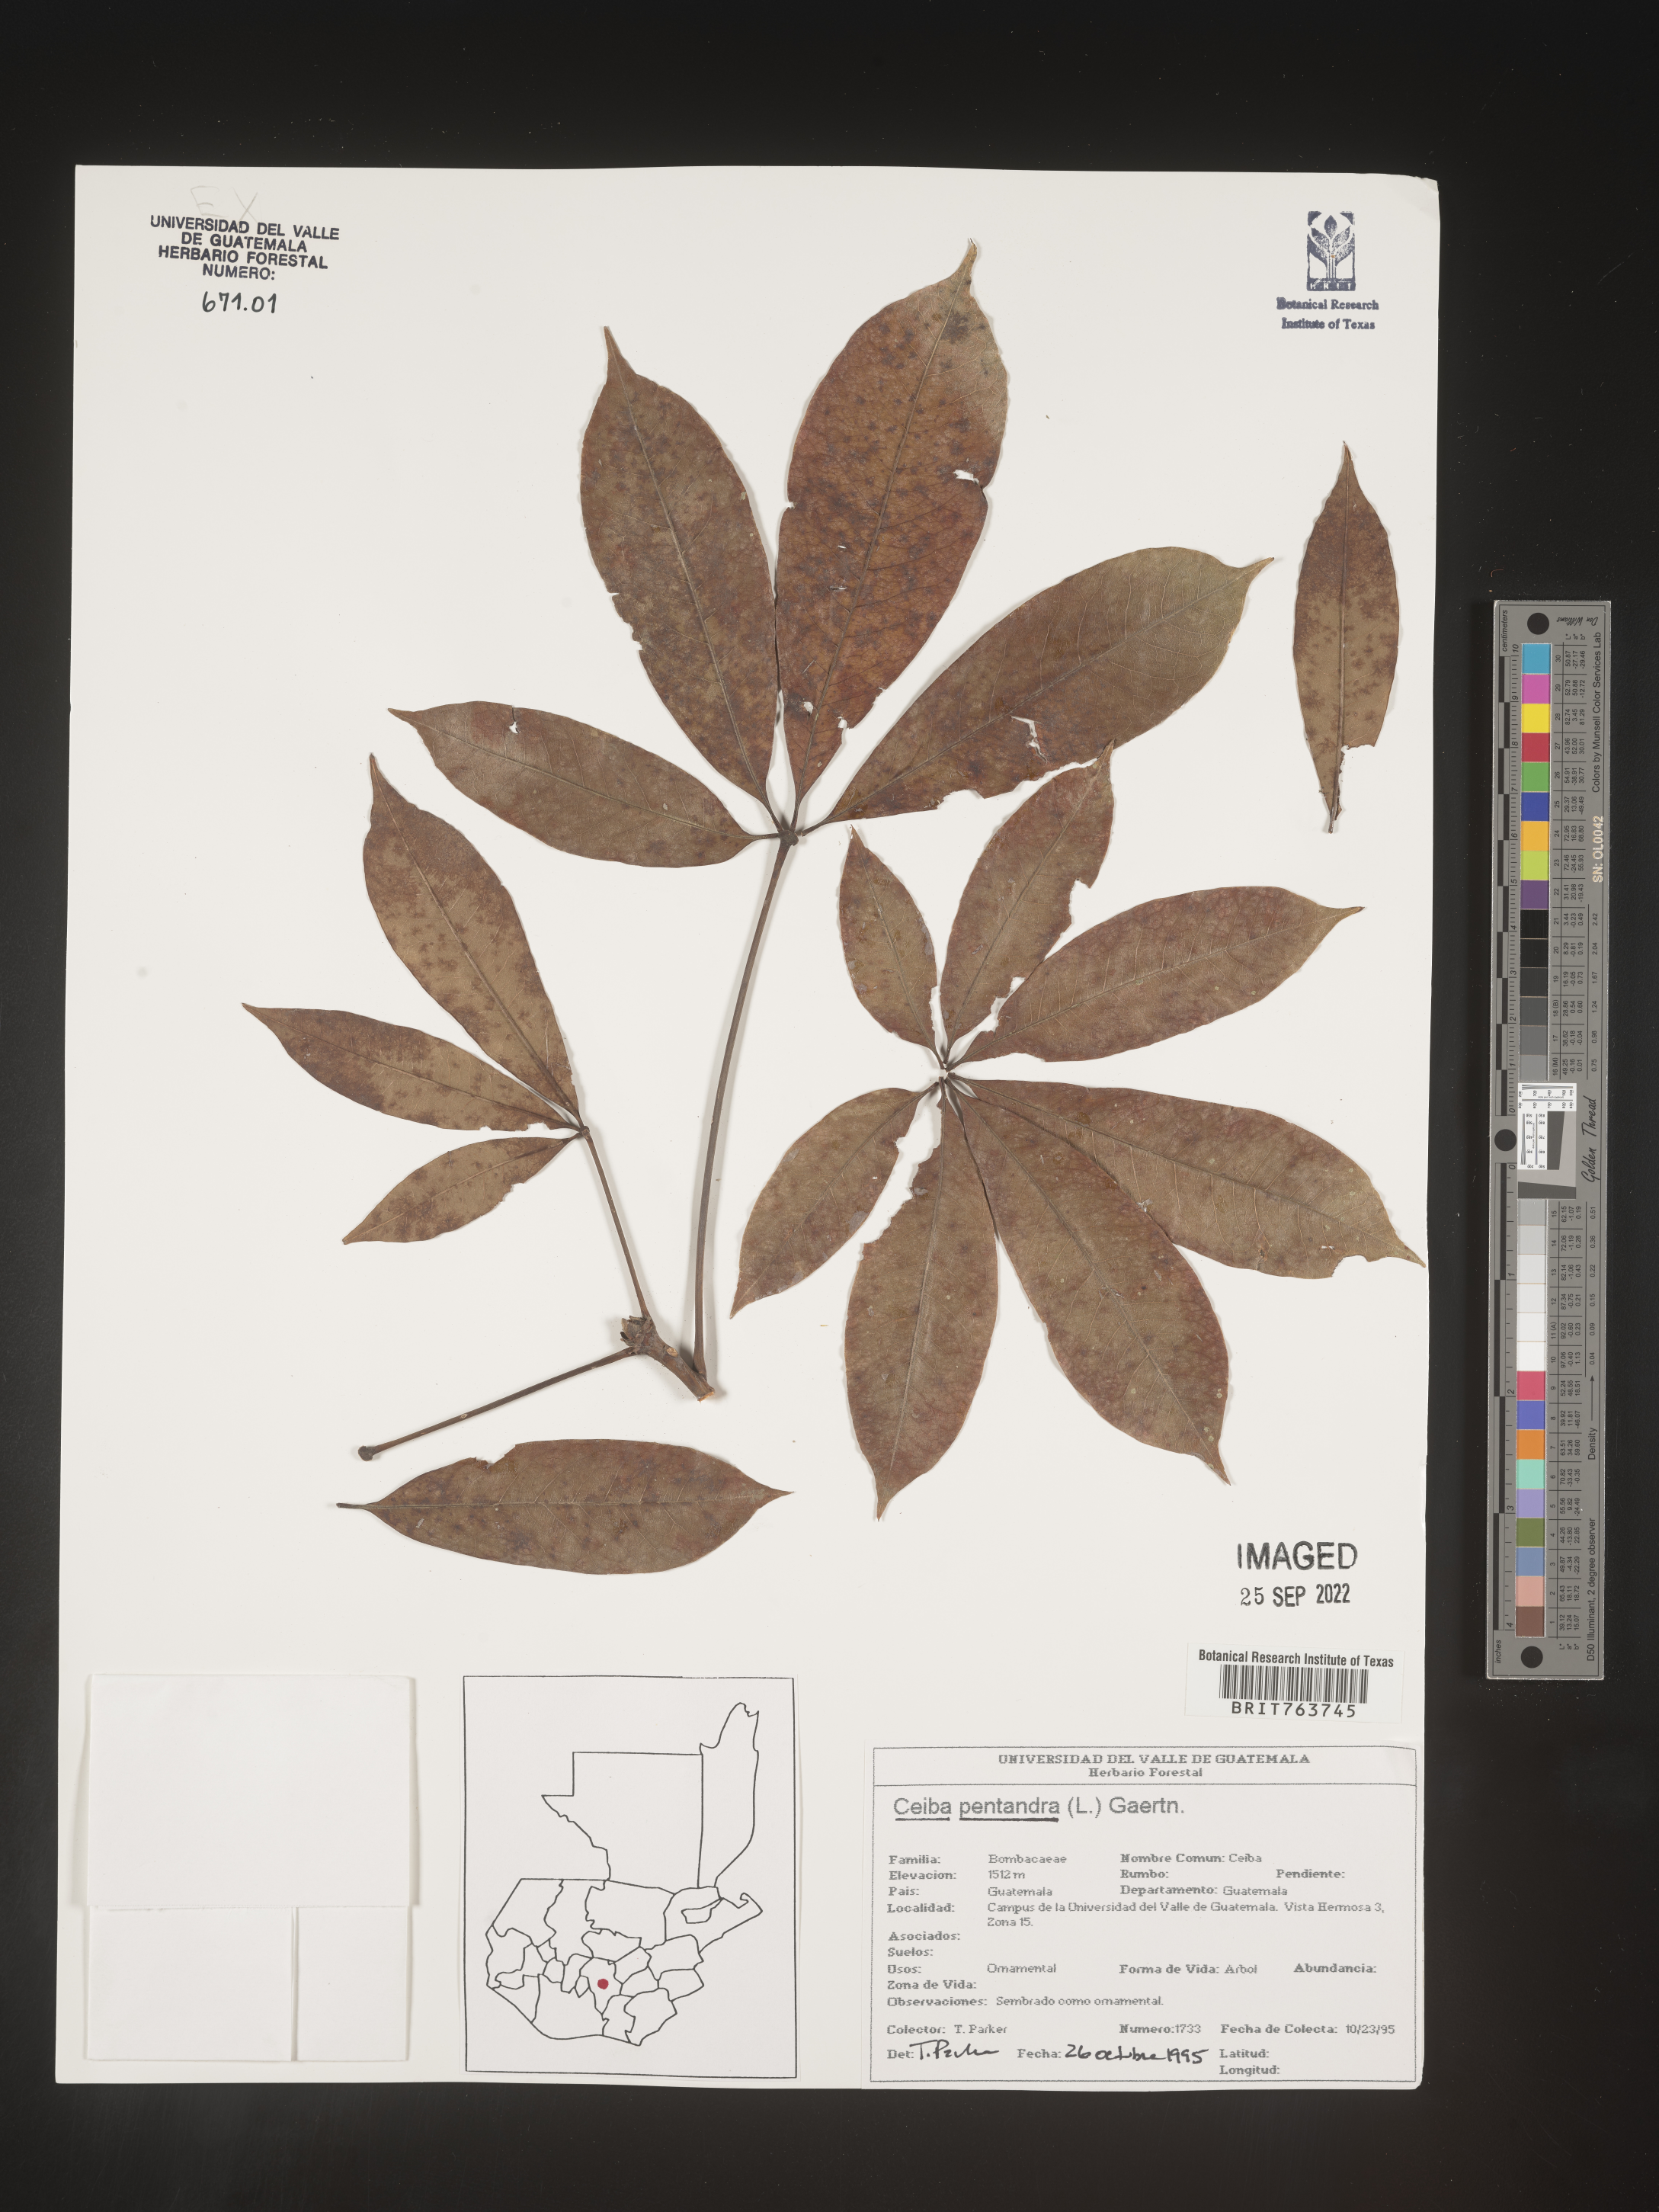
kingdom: Plantae
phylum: Tracheophyta
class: Magnoliopsida
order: Malvales
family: Malvaceae
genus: Ceiba
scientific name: Ceiba
